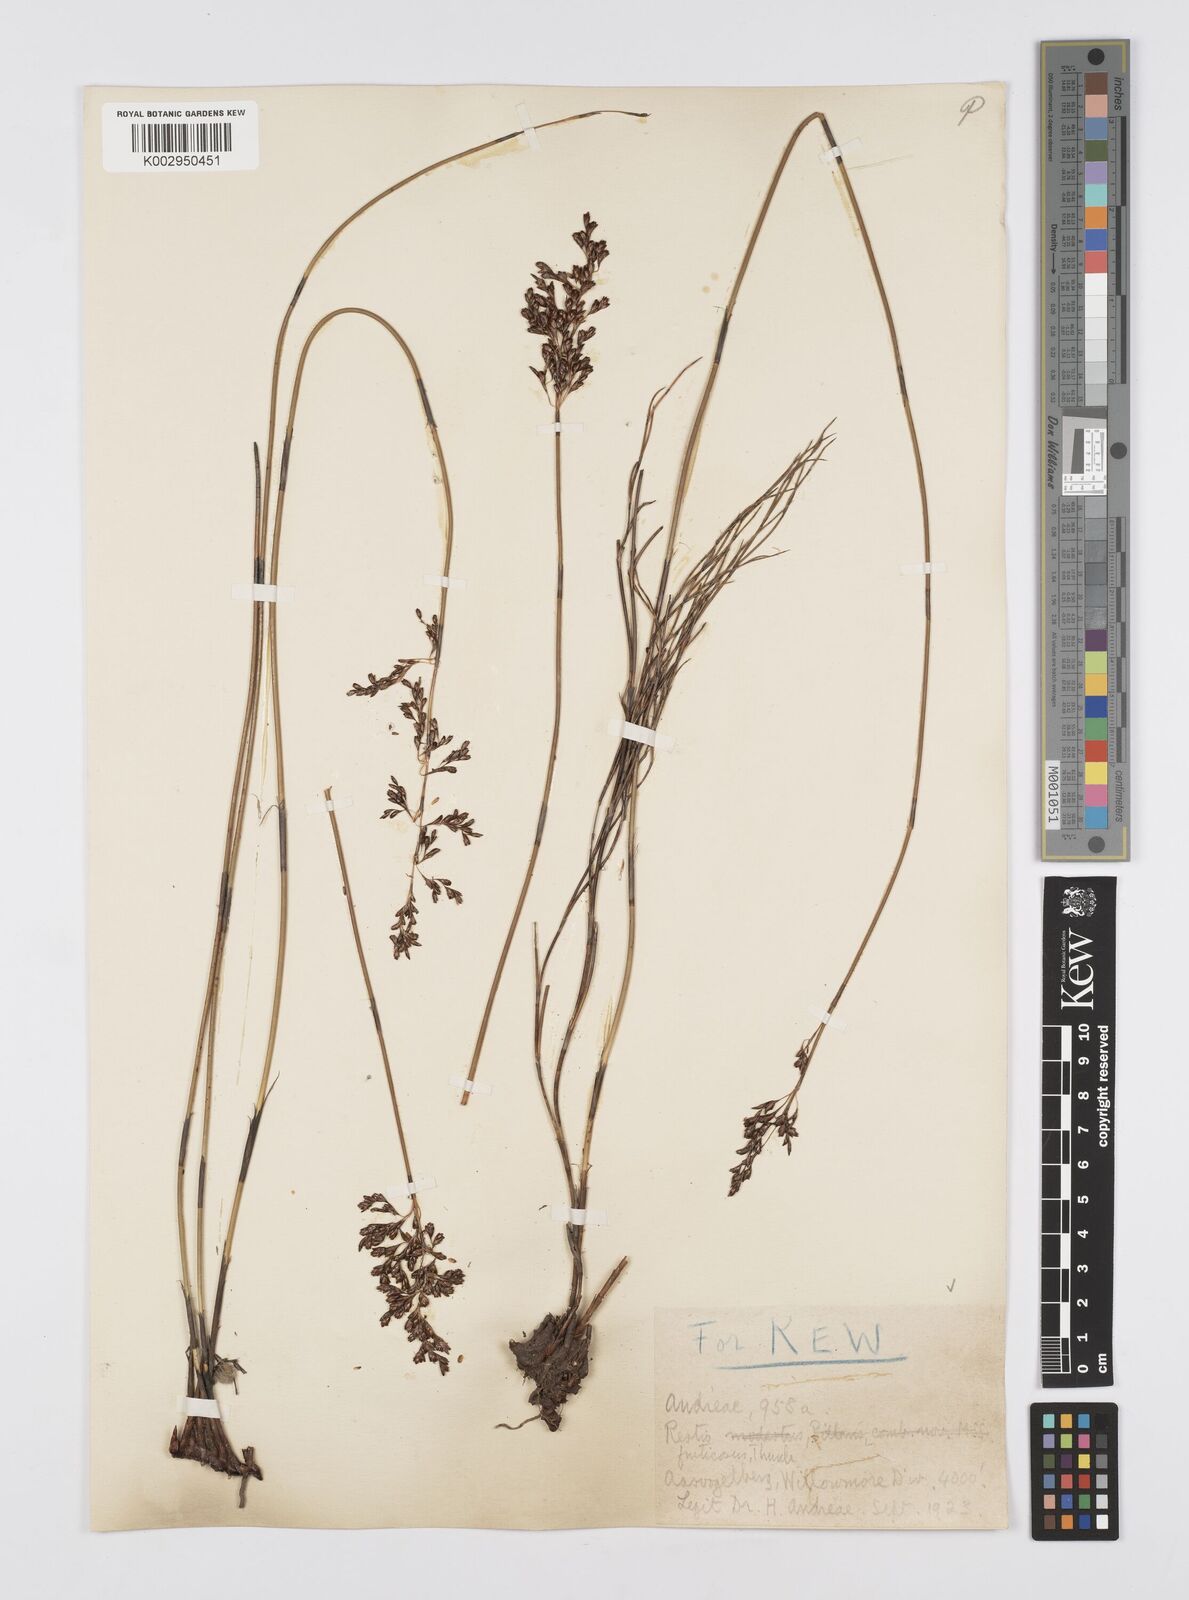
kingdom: Plantae
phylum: Tracheophyta
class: Liliopsida
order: Poales
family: Restionaceae
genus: Rhodocoma
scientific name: Rhodocoma fruticosa
